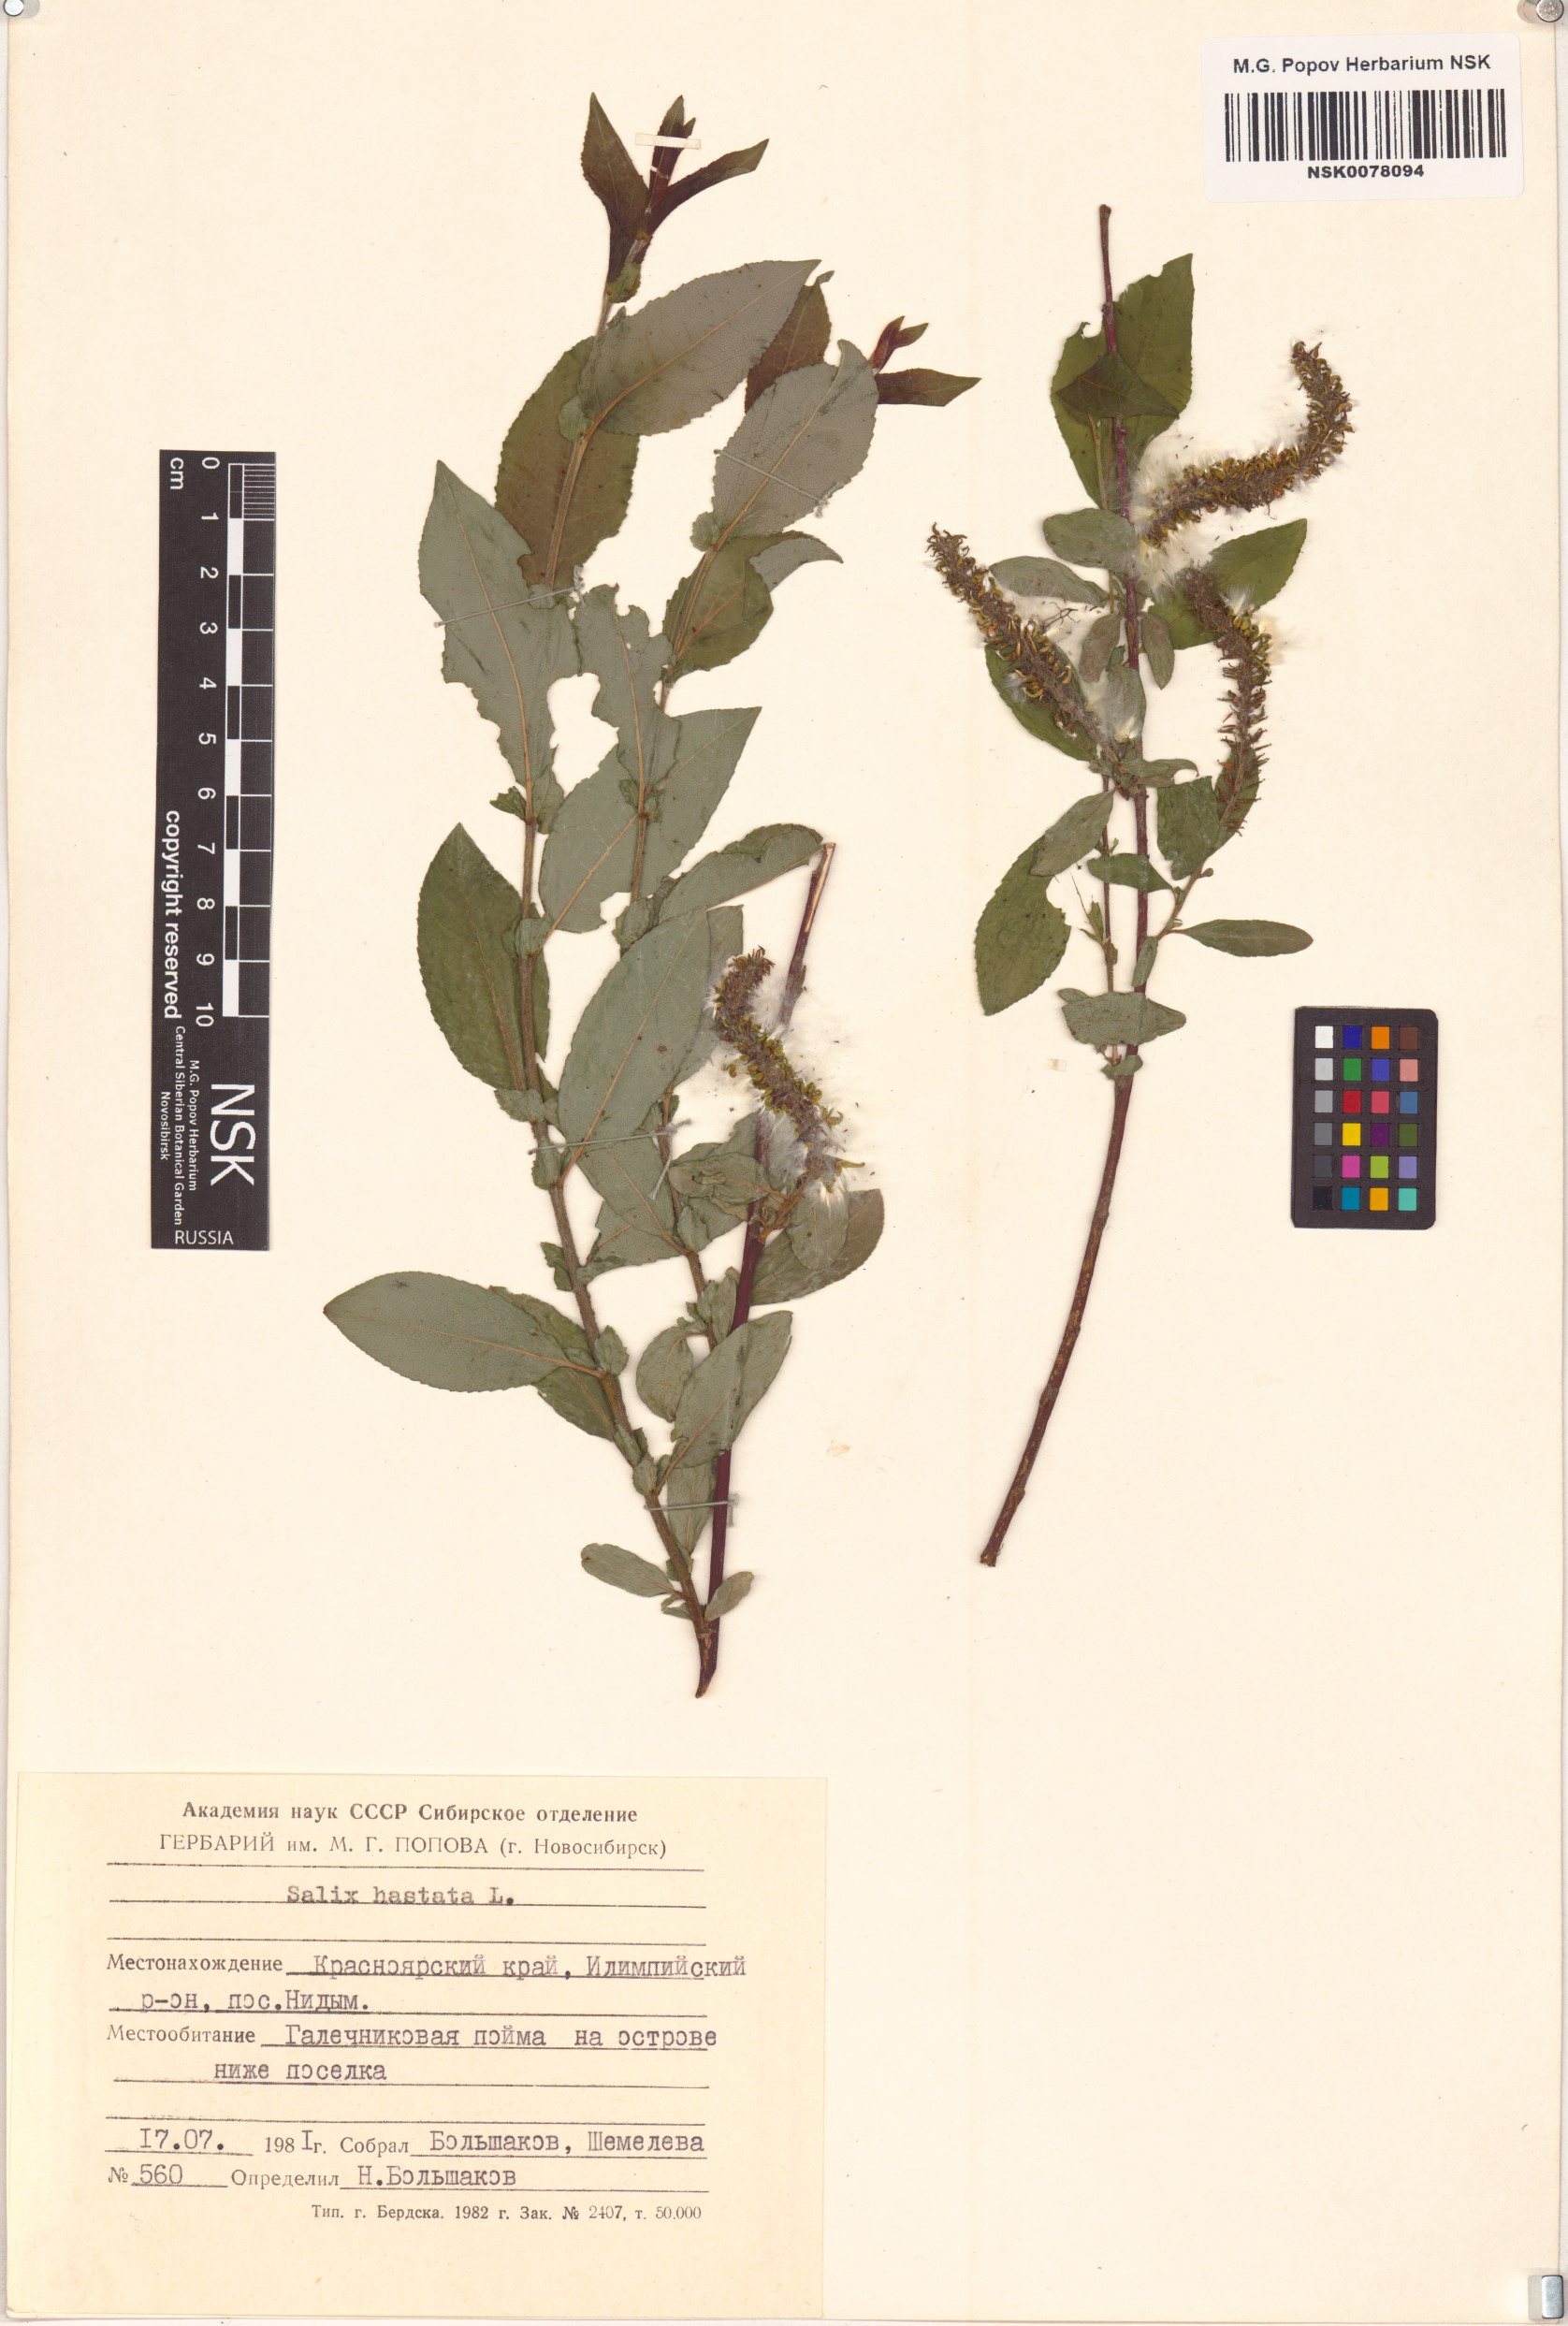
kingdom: Plantae
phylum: Tracheophyta
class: Magnoliopsida
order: Malpighiales
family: Salicaceae
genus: Salix
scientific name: Salix hastata
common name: Halberd willow
